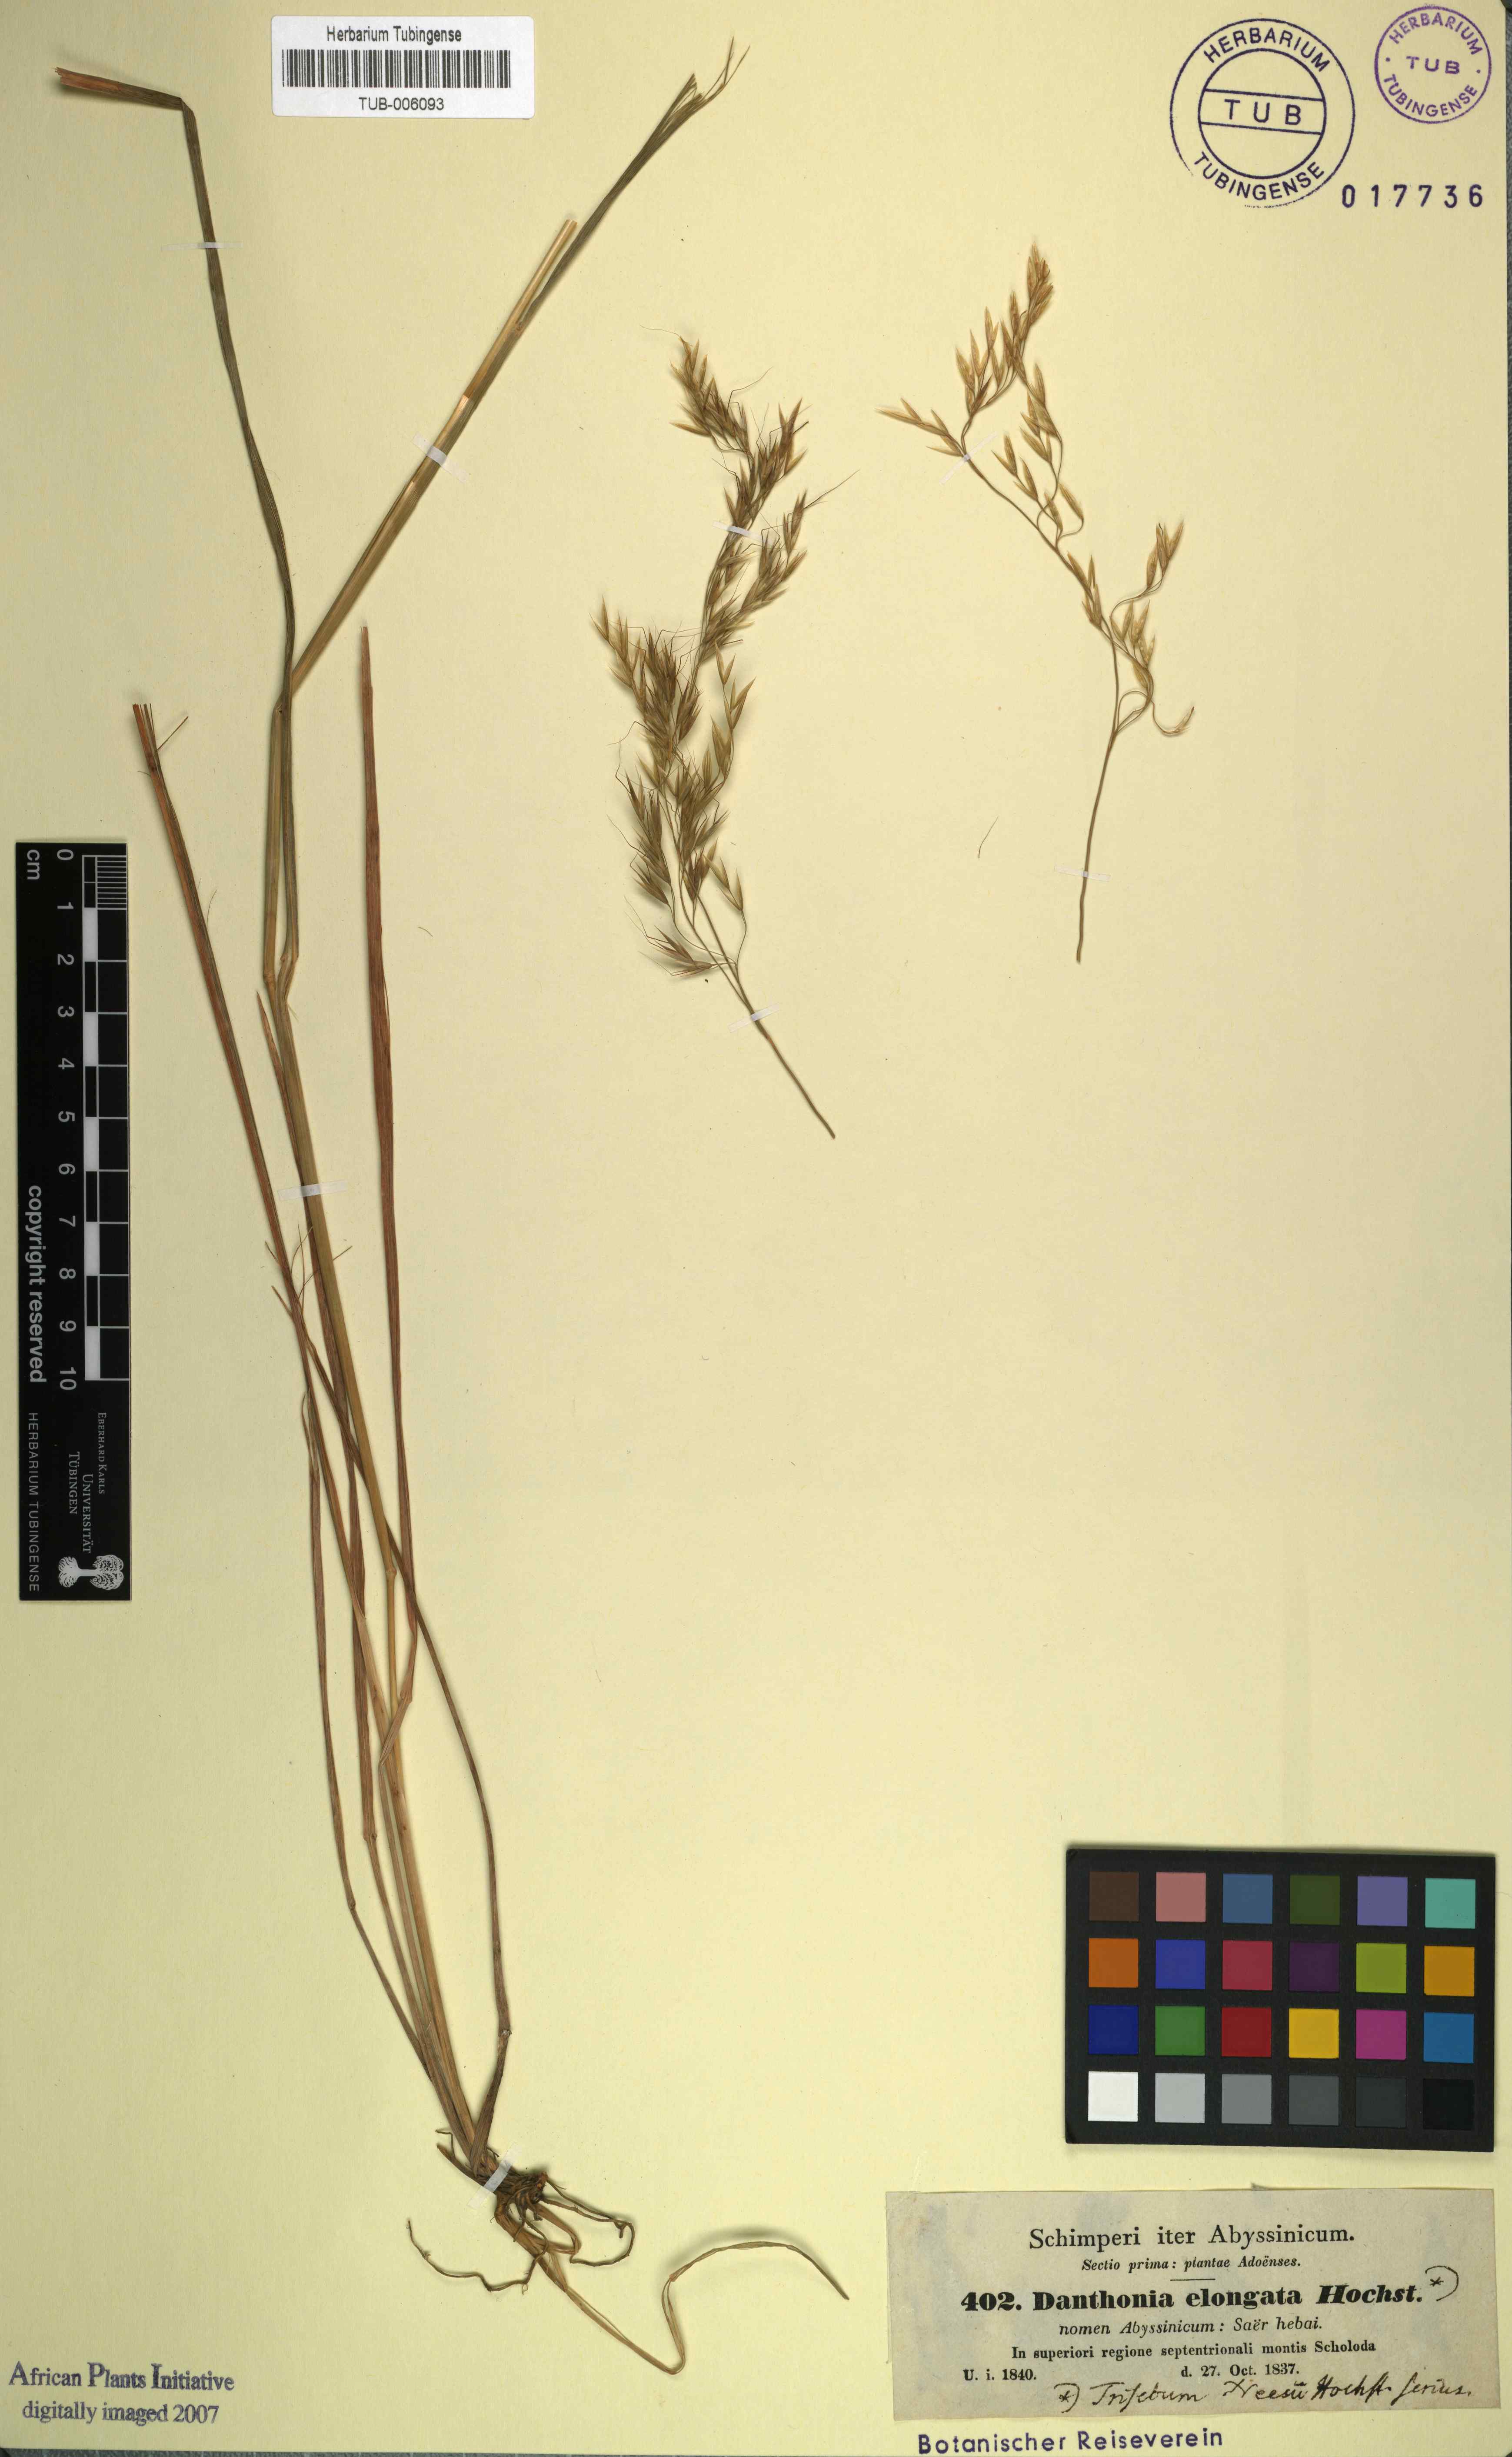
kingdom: Plantae
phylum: Tracheophyta
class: Liliopsida
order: Poales
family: Poaceae
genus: Trisetopsis
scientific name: Trisetopsis elongata
